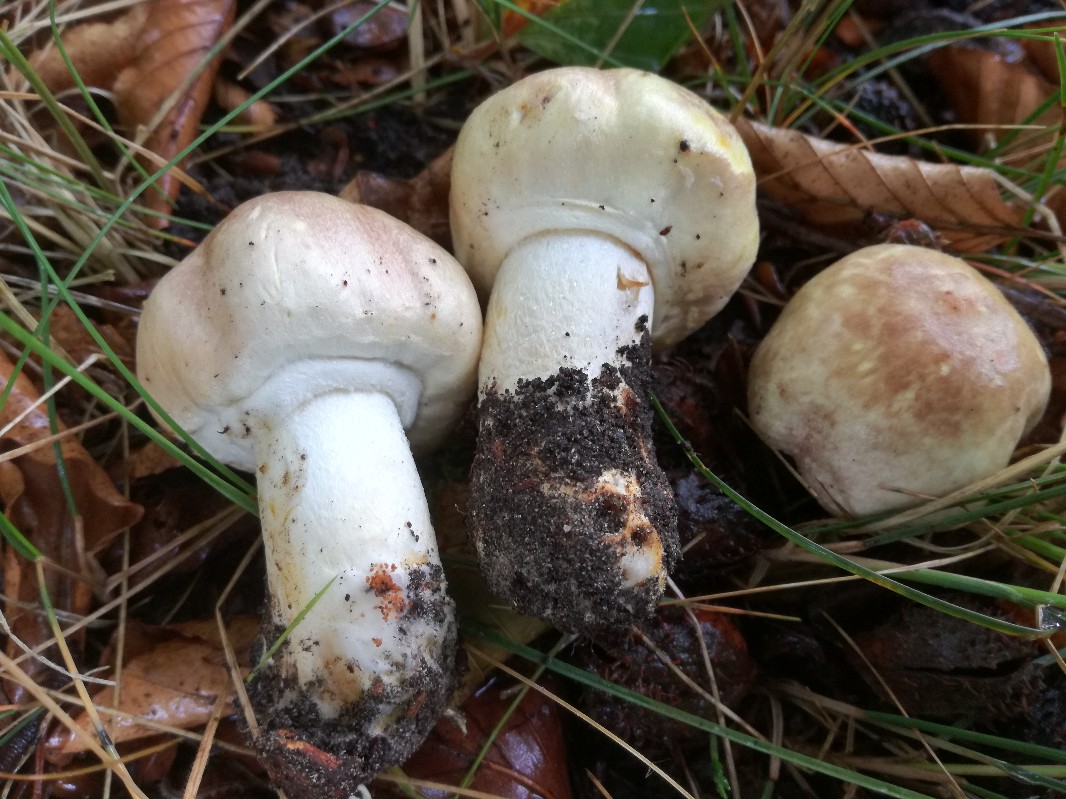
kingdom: Fungi
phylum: Basidiomycota
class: Agaricomycetes
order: Agaricales
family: Agaricaceae
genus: Agaricus
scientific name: Agaricus brunneolus
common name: purpur-champignon
